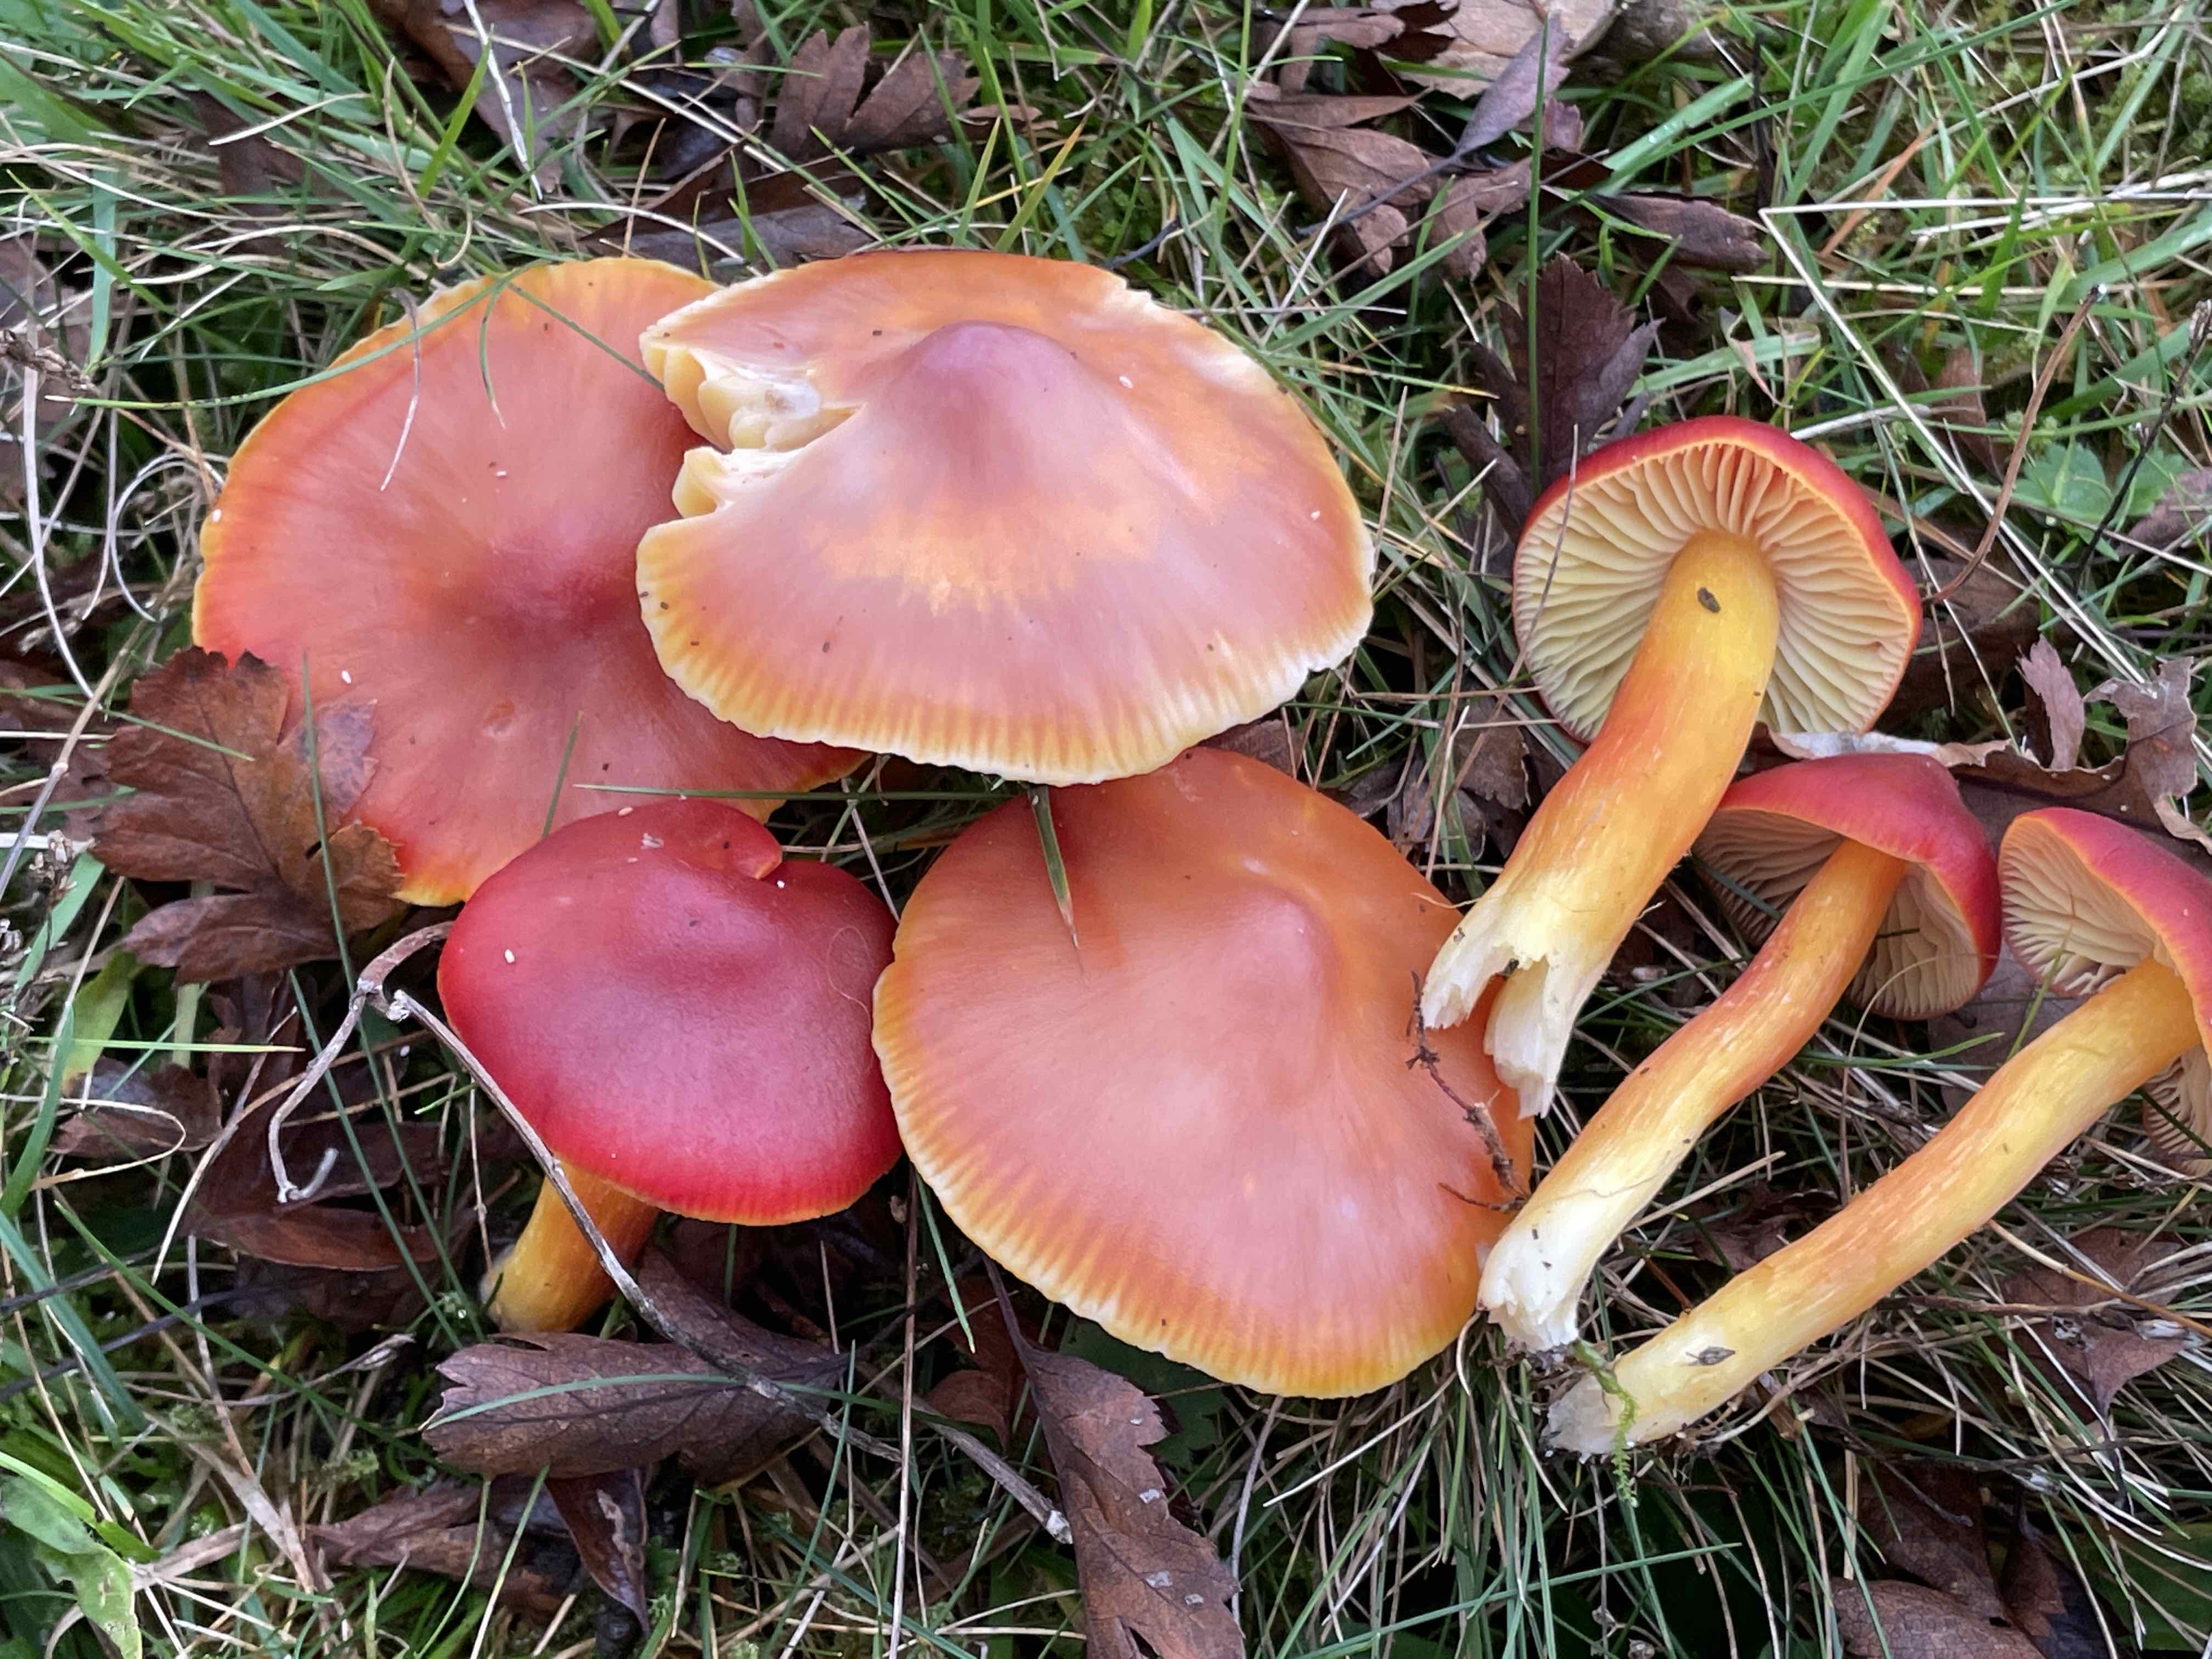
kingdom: Fungi
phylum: Basidiomycota
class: Agaricomycetes
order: Agaricales
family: Hygrophoraceae
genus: Hygrocybe
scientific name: Hygrocybe punicea
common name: skarlagen-vokshat
